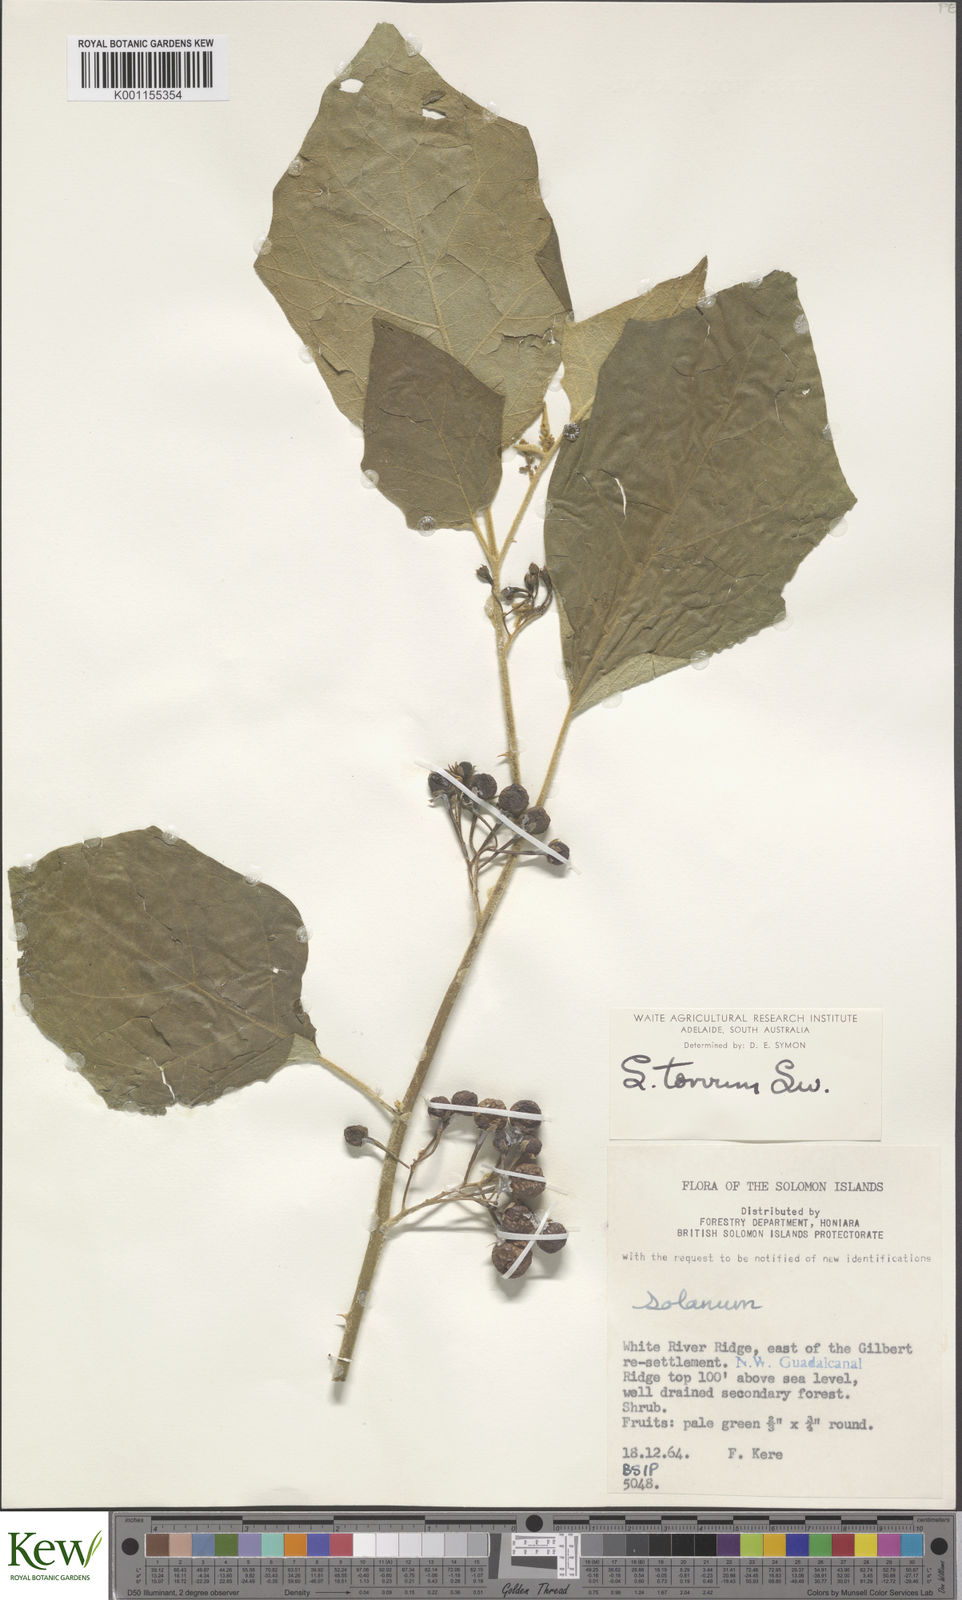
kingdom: Plantae
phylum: Tracheophyta
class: Magnoliopsida
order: Solanales
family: Solanaceae
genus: Solanum
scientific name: Solanum torvum
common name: Turkey berry
